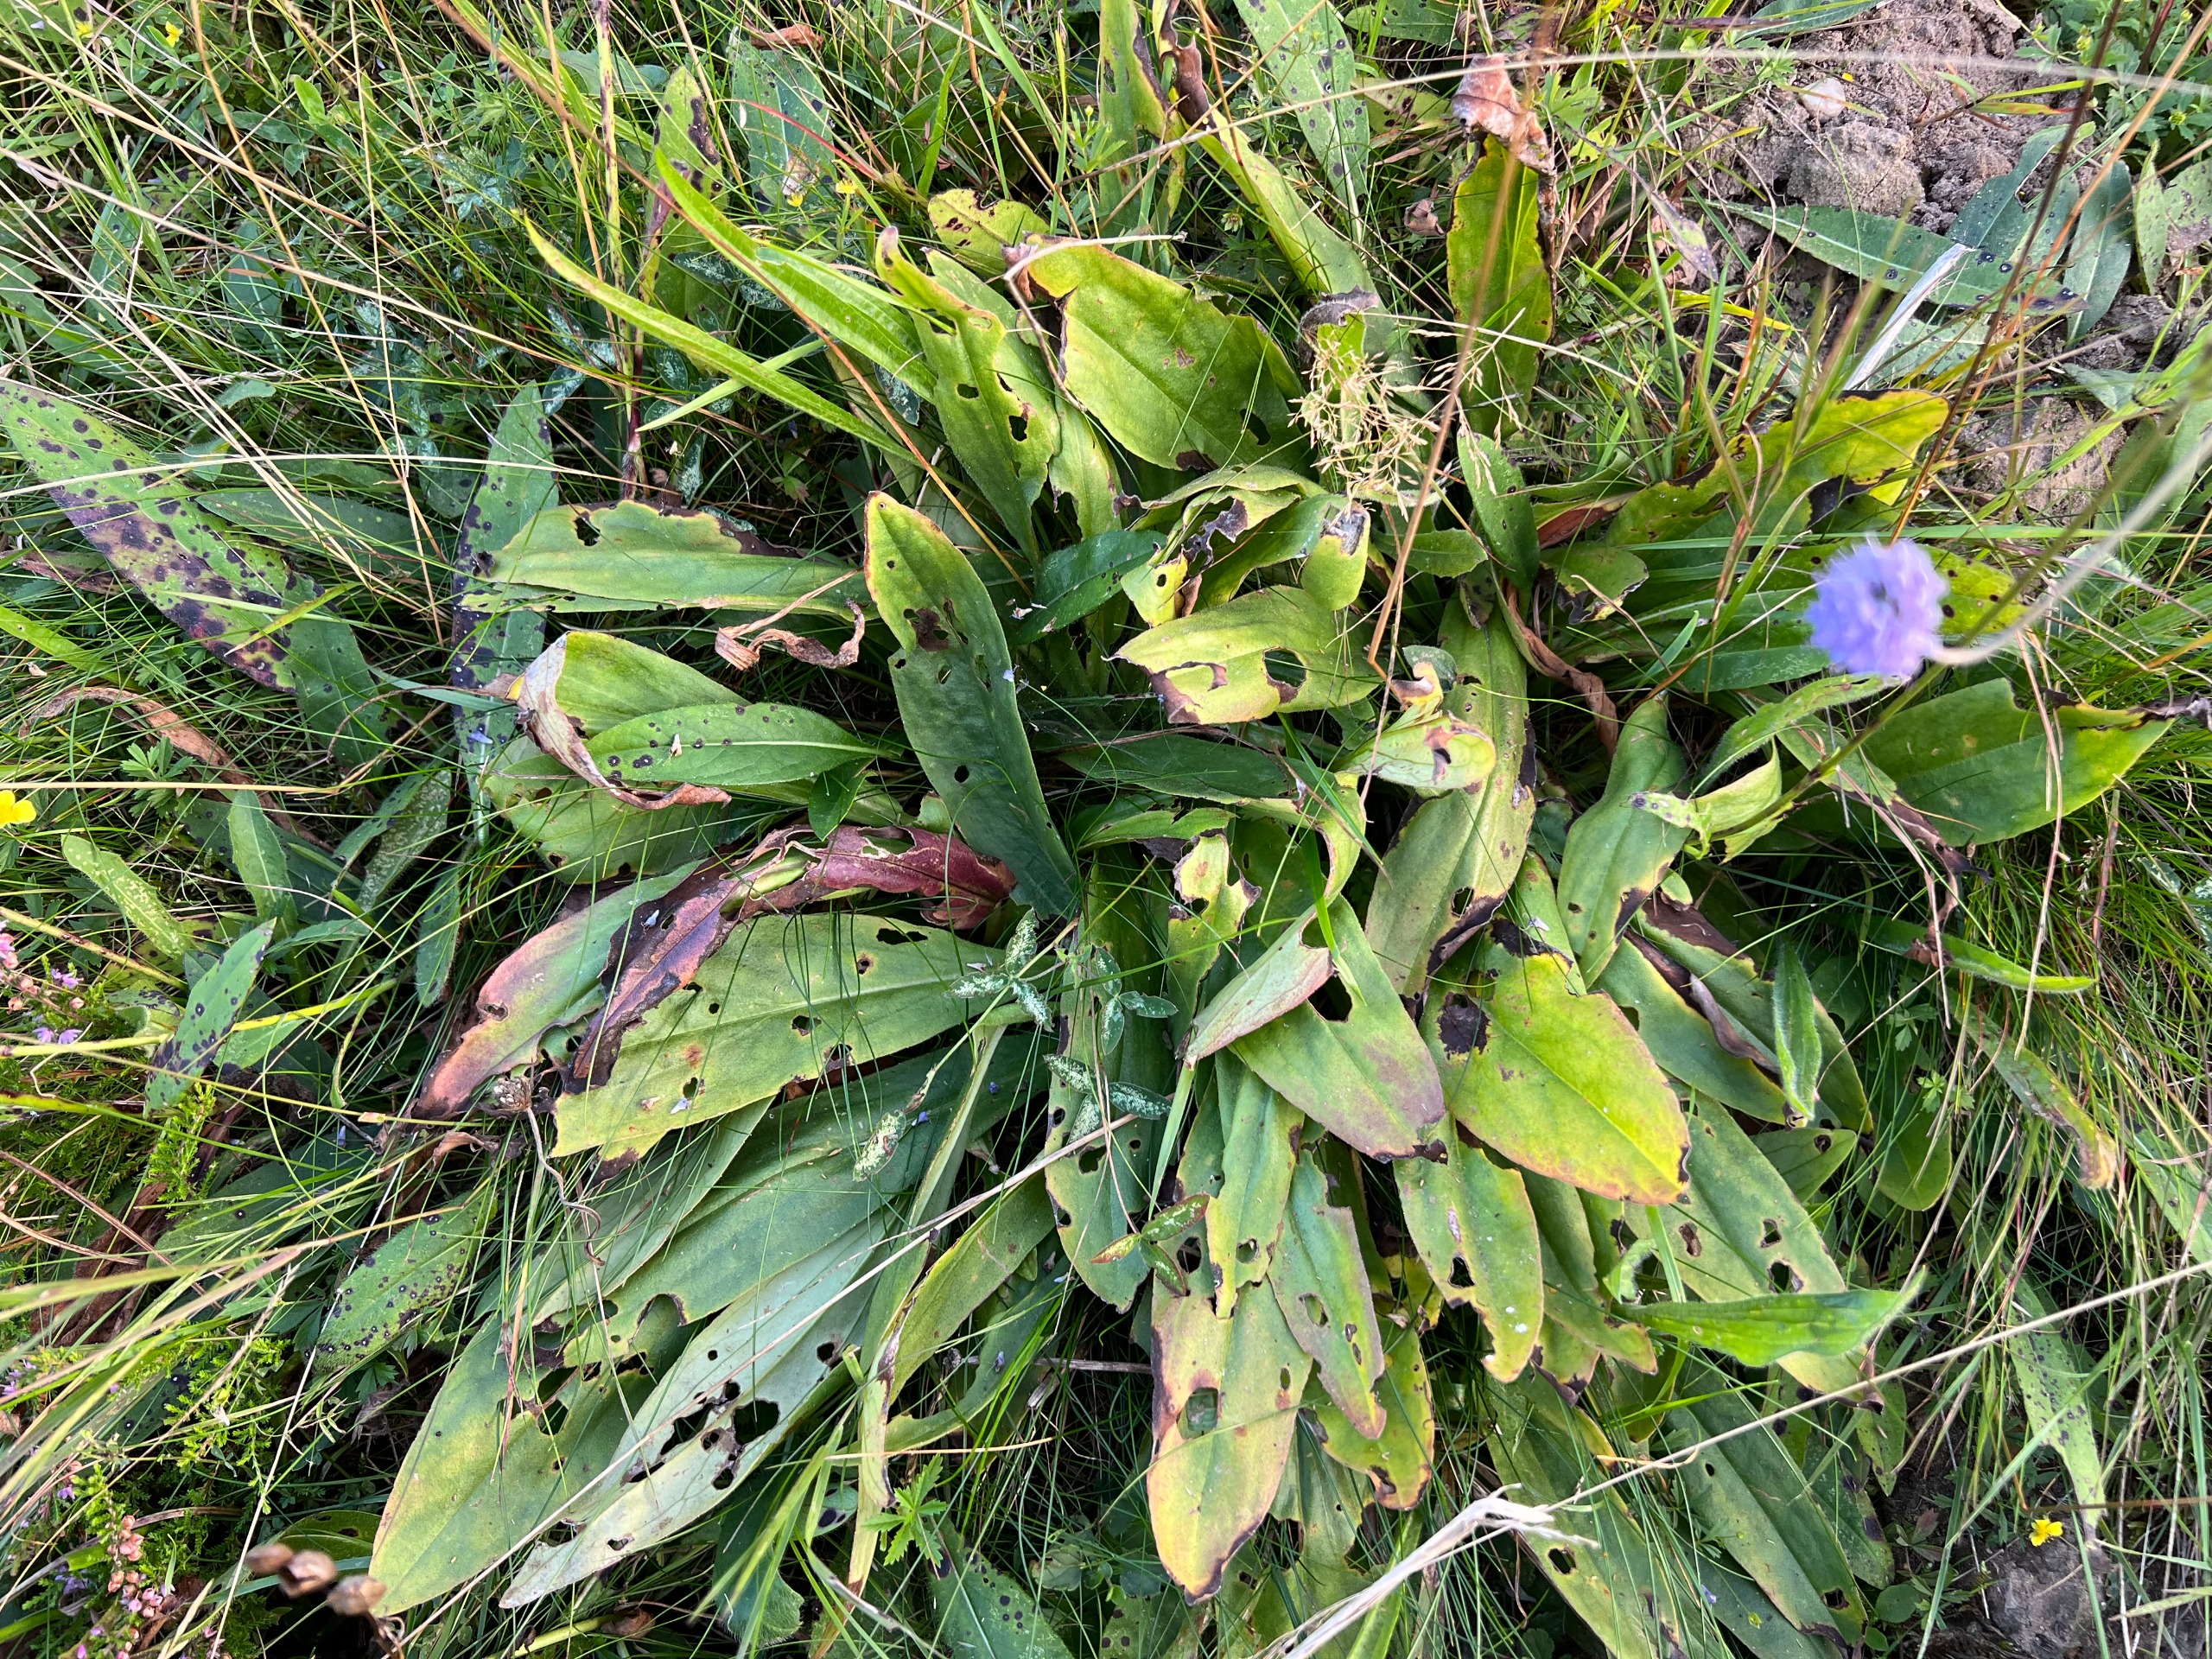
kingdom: Plantae
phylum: Tracheophyta
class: Magnoliopsida
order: Asterales
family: Asteraceae
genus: Arnica
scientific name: Arnica montana
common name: Guldblomme
